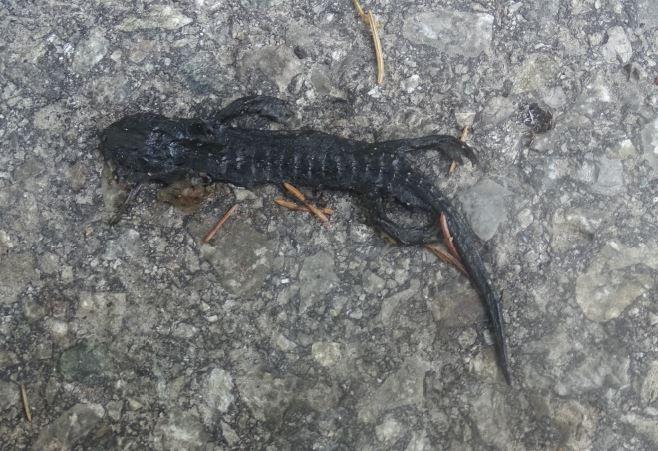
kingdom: Animalia
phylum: Chordata
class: Amphibia
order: Caudata
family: Salamandridae
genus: Salamandra
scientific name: Salamandra atra
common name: Alpine salamander
